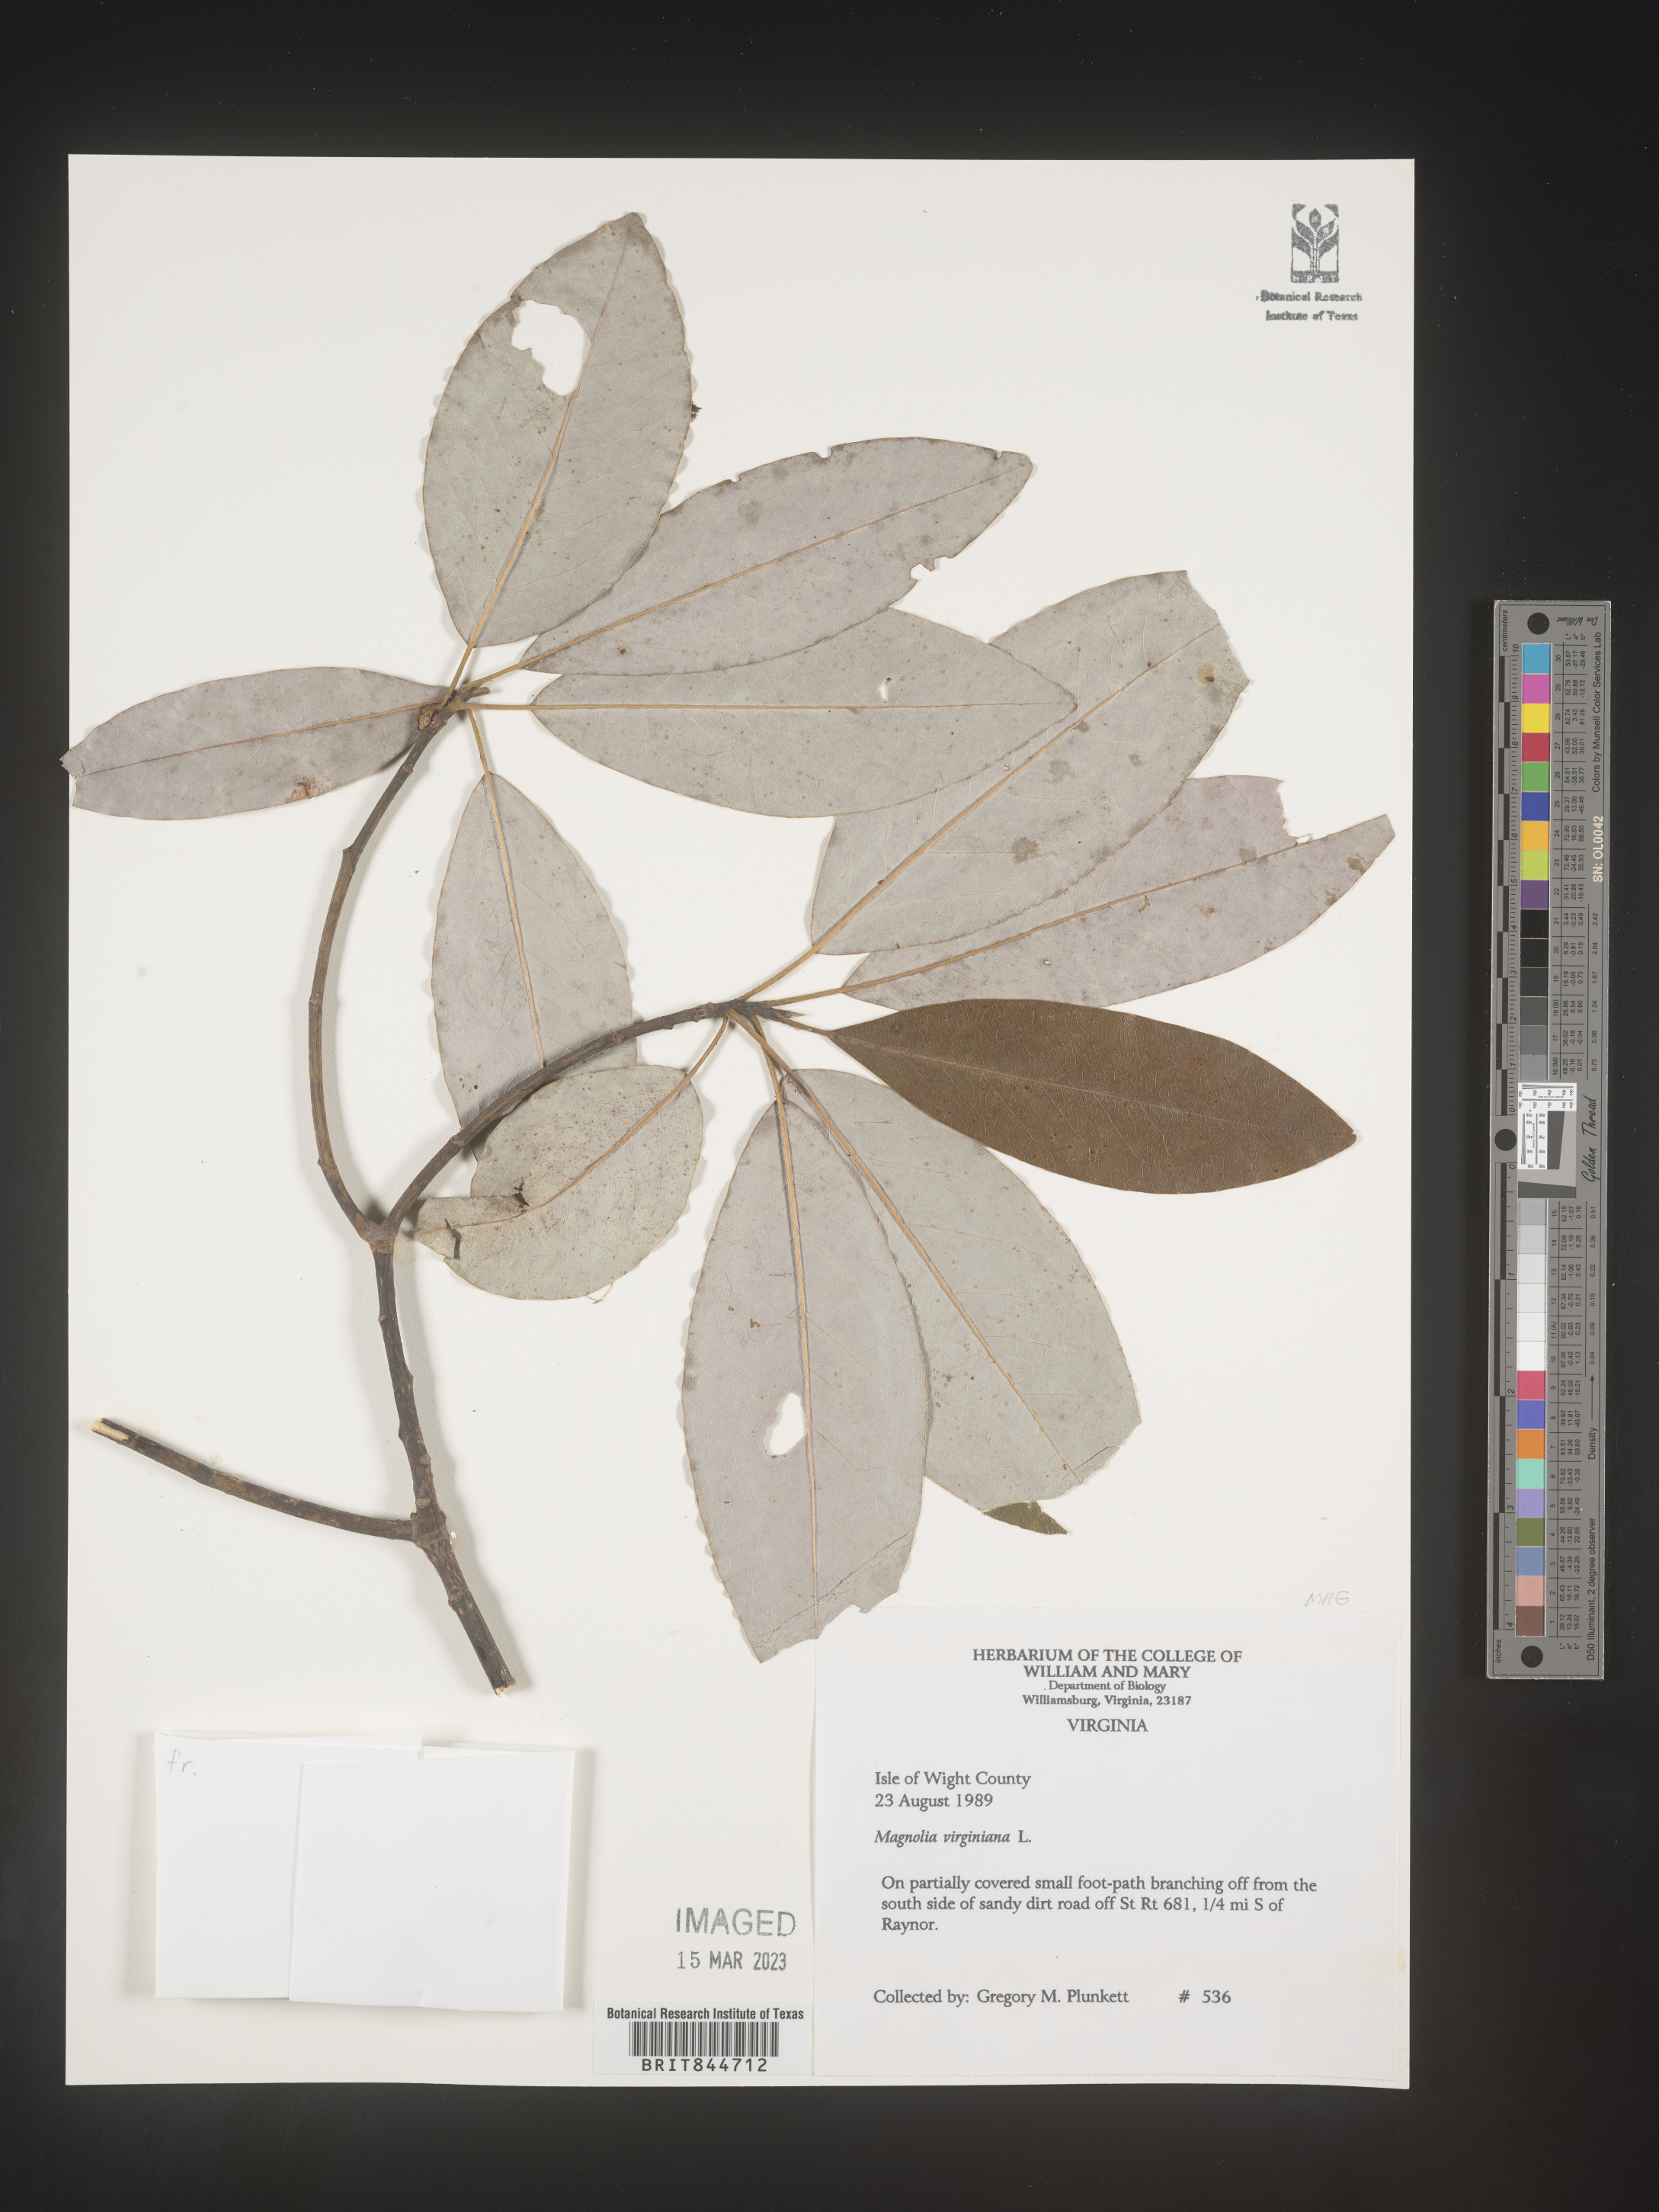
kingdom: Plantae
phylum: Tracheophyta
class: Magnoliopsida
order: Magnoliales
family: Magnoliaceae
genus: Magnolia
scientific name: Magnolia virginiana
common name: Swamp bay
